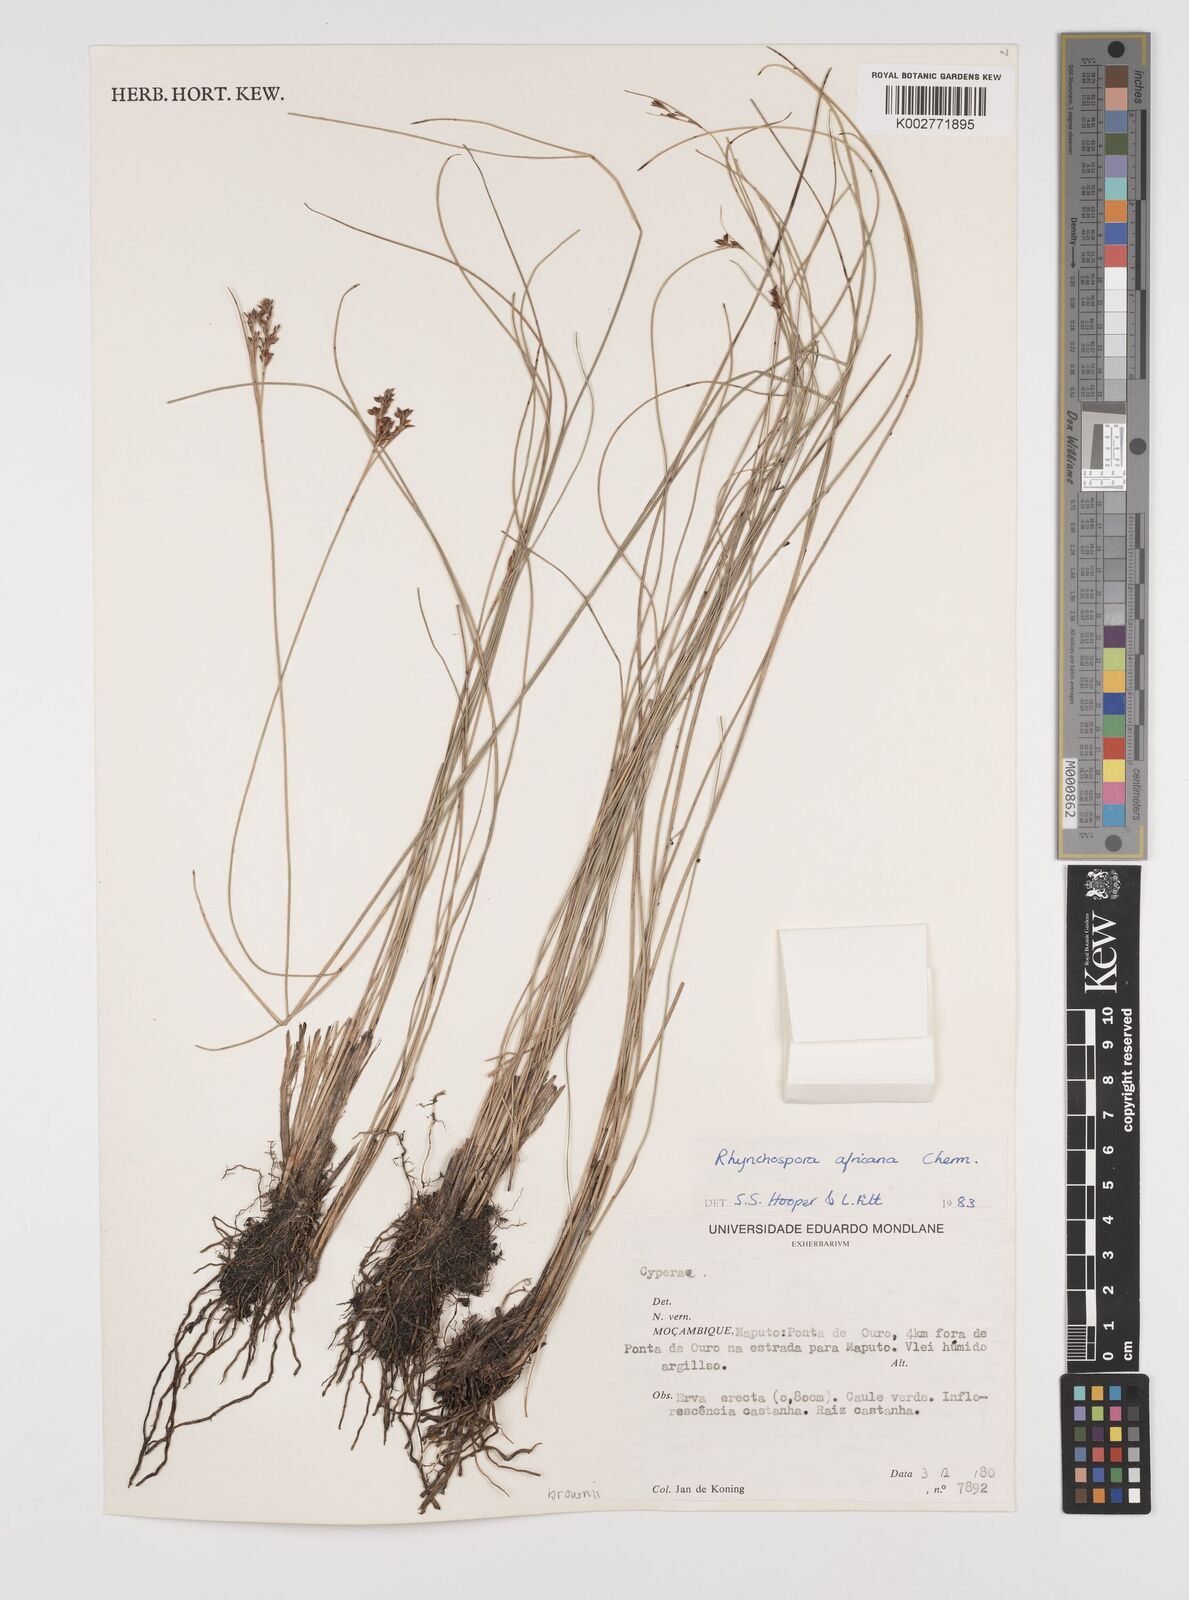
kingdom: Plantae
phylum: Tracheophyta
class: Liliopsida
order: Poales
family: Cyperaceae
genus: Rhynchospora
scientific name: Rhynchospora angolensis
